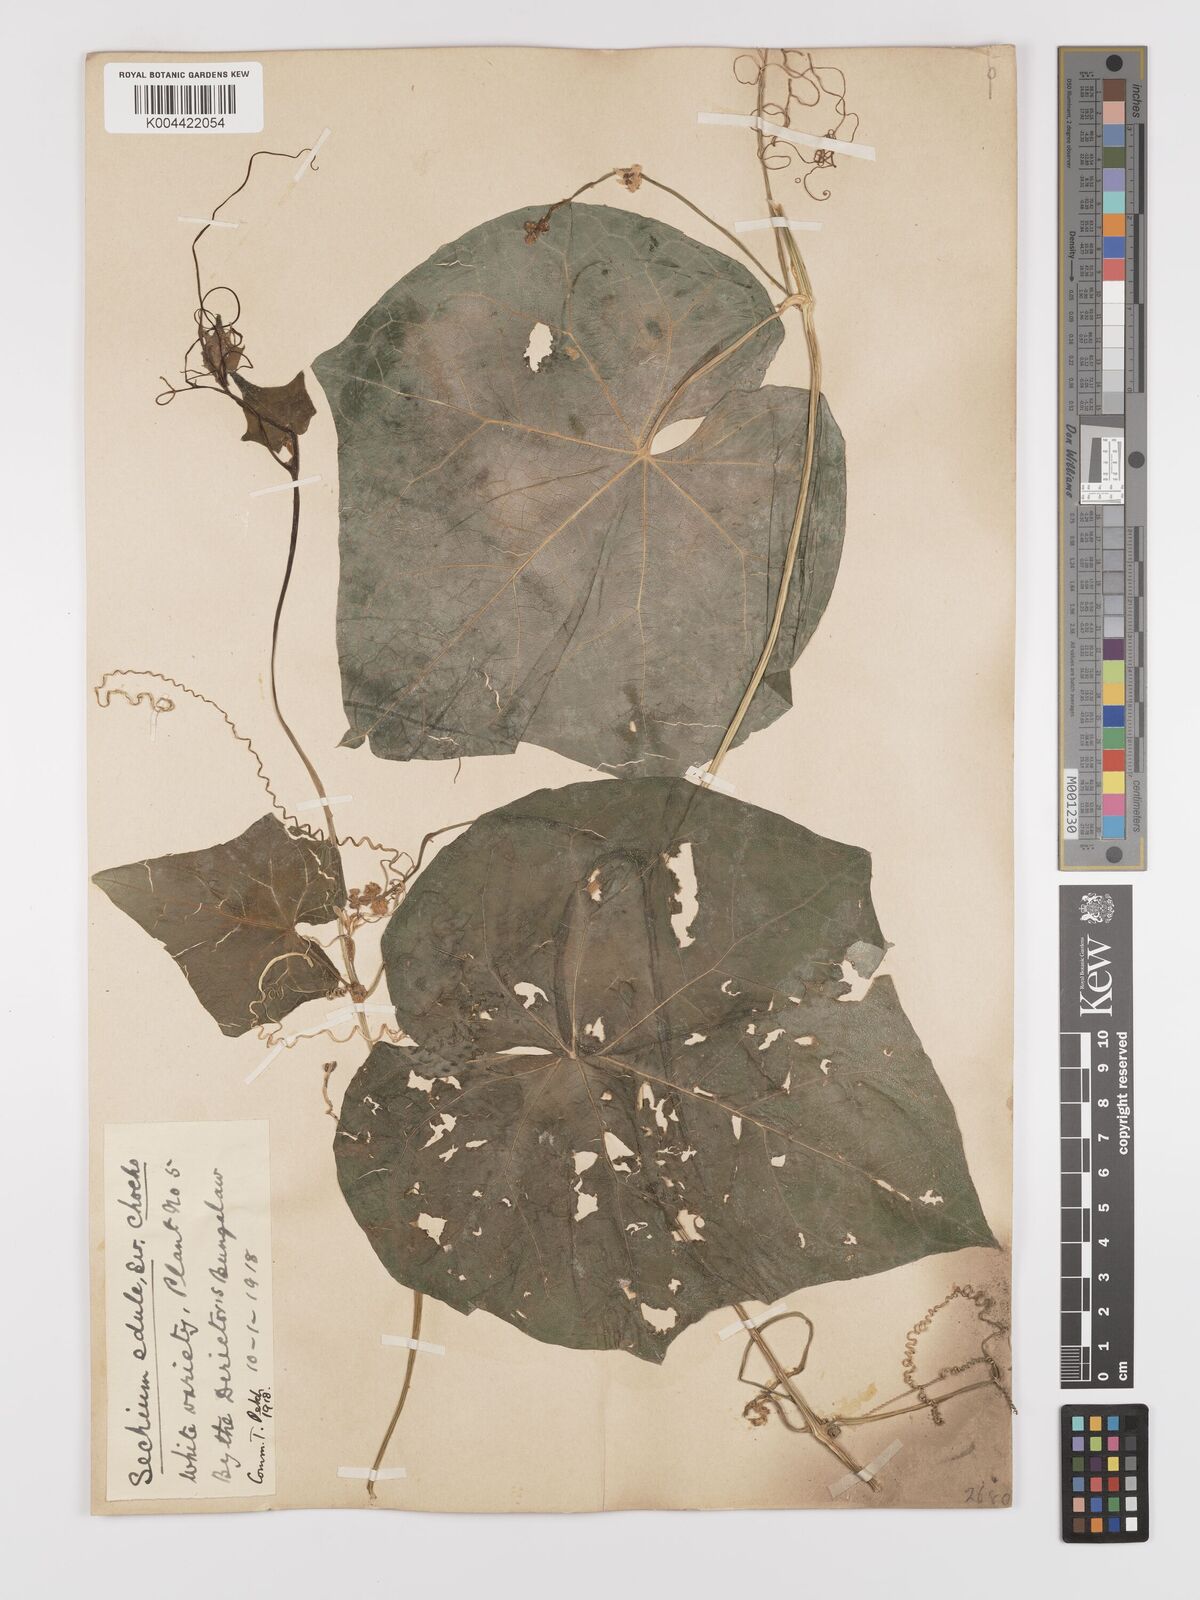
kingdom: Plantae
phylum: Tracheophyta
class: Magnoliopsida
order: Cucurbitales
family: Cucurbitaceae
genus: Sechium
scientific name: Sechium edule
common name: Chayote
